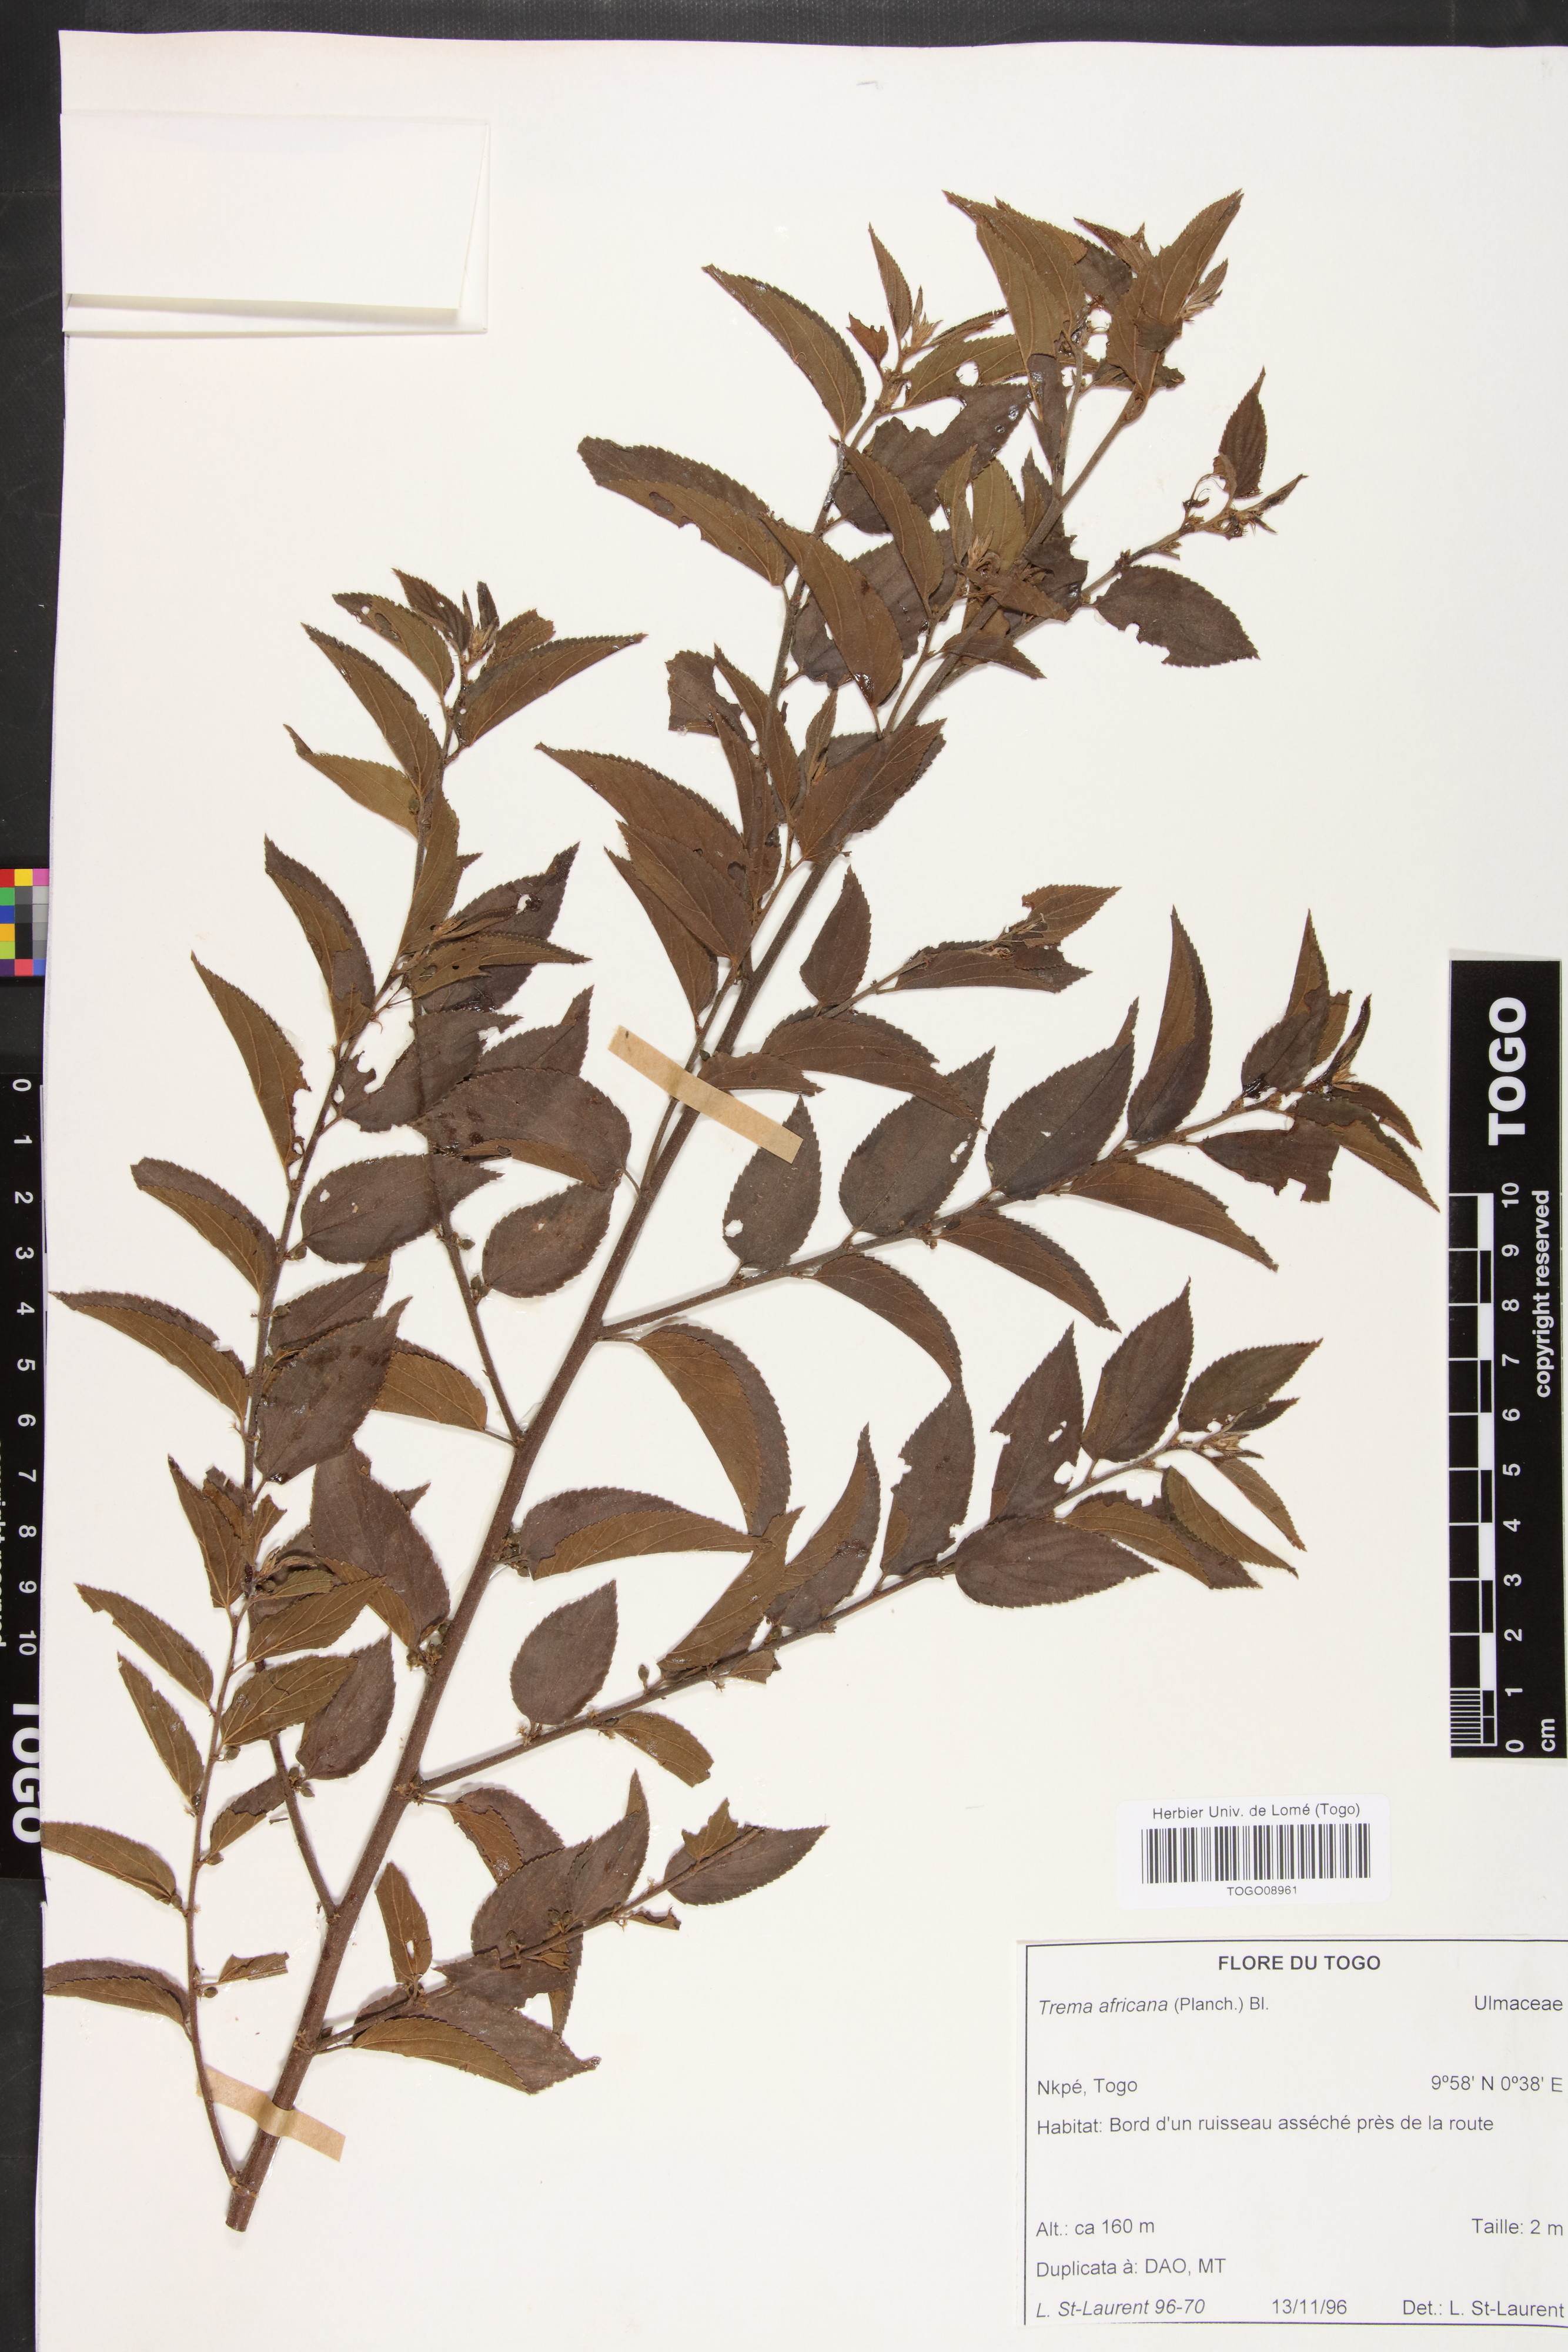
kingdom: Plantae
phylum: Tracheophyta
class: Magnoliopsida
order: Rosales
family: Cannabaceae
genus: Trema
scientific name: Trema orientale
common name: Indian charcoal tree
